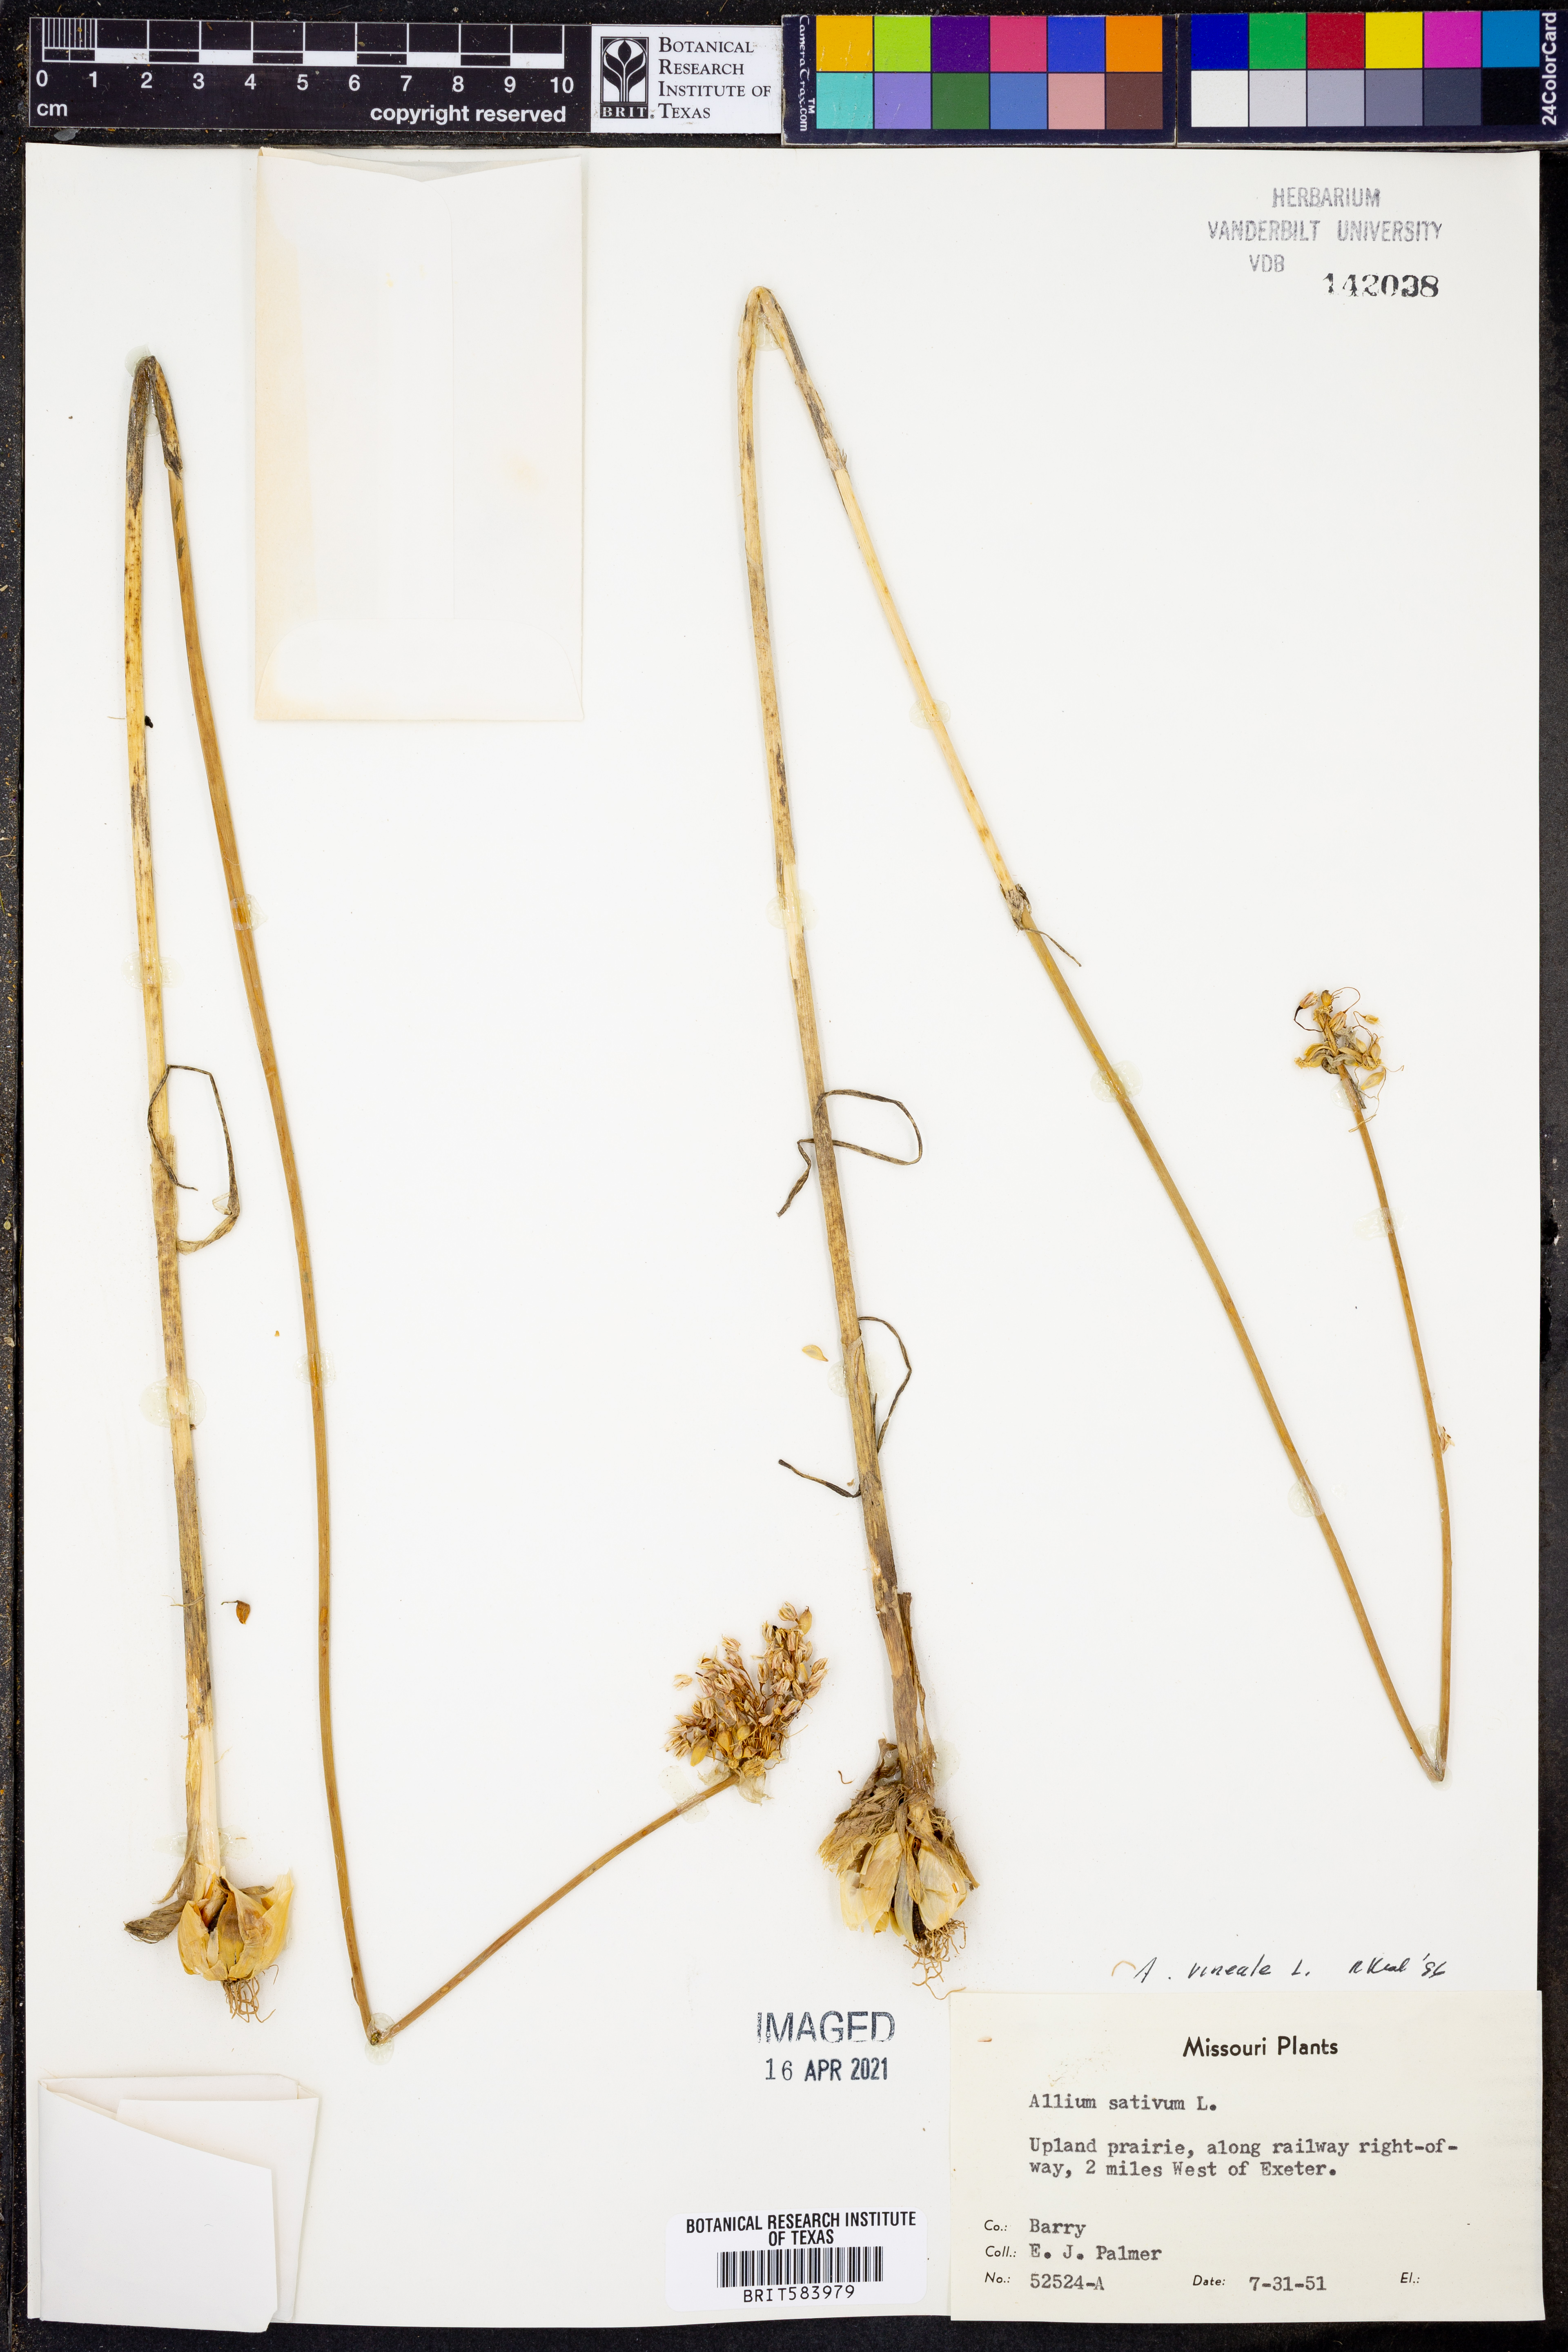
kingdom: Plantae
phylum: Tracheophyta
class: Liliopsida
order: Asparagales
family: Amaryllidaceae
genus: Allium
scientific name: Allium vineale
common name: Crow garlic
